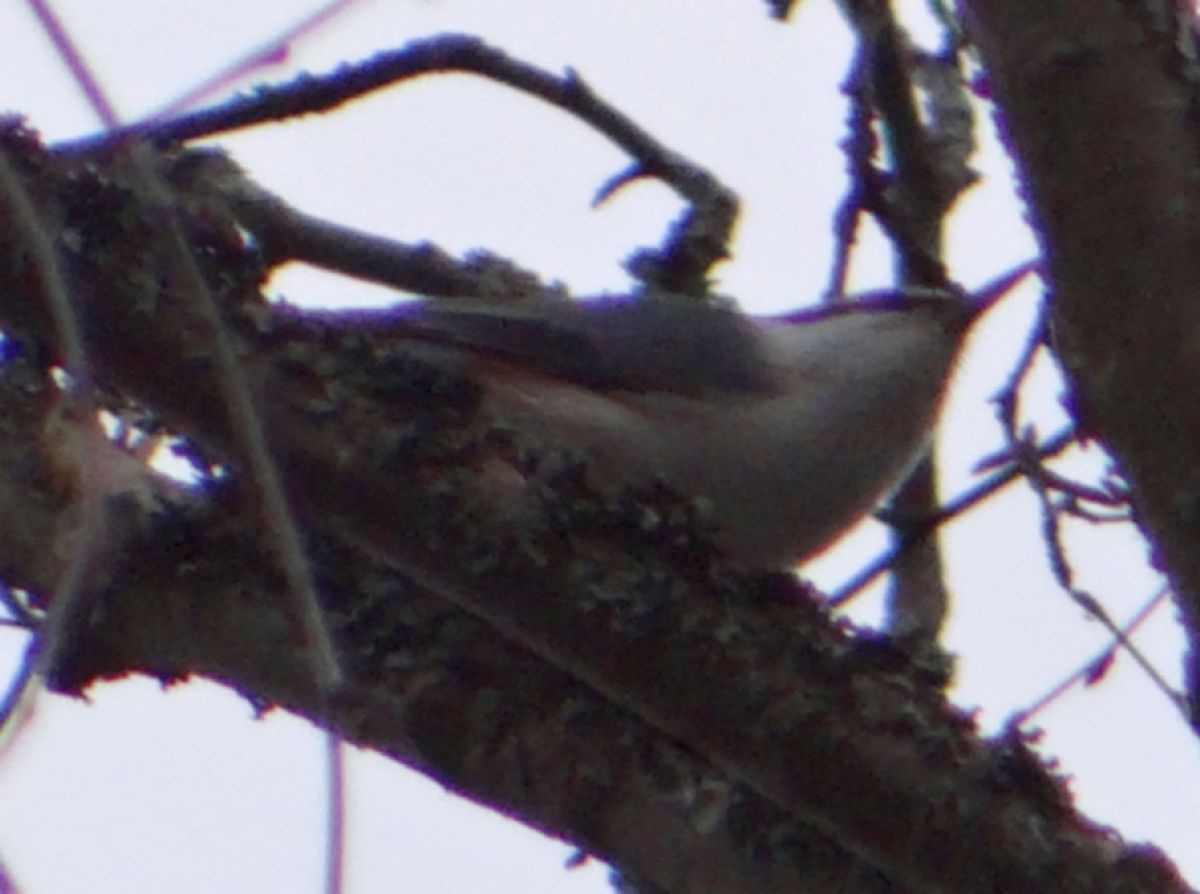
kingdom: Animalia
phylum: Chordata
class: Aves
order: Passeriformes
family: Sittidae
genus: Sitta
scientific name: Sitta europaea
